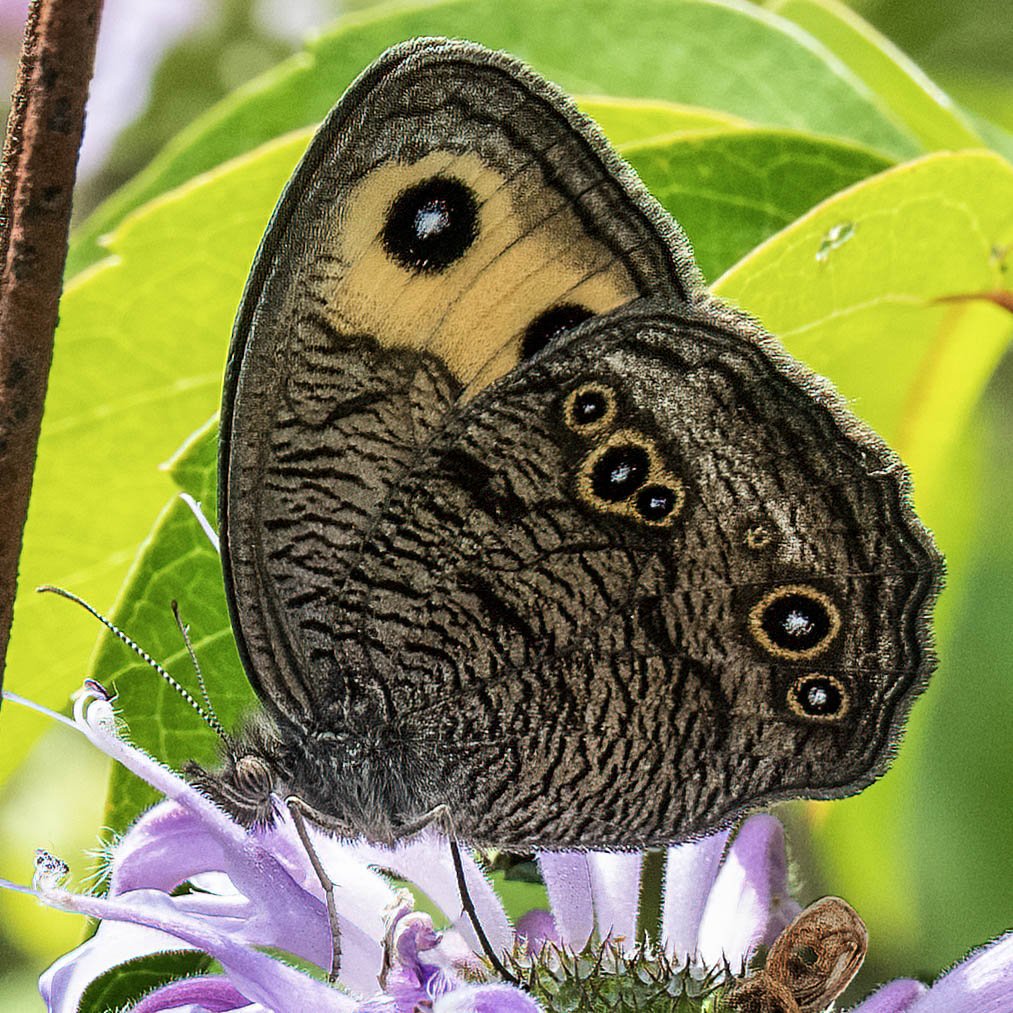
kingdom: Animalia
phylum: Arthropoda
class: Insecta
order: Lepidoptera
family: Nymphalidae
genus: Cercyonis
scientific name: Cercyonis pegala
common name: Common Wood-Nymph
